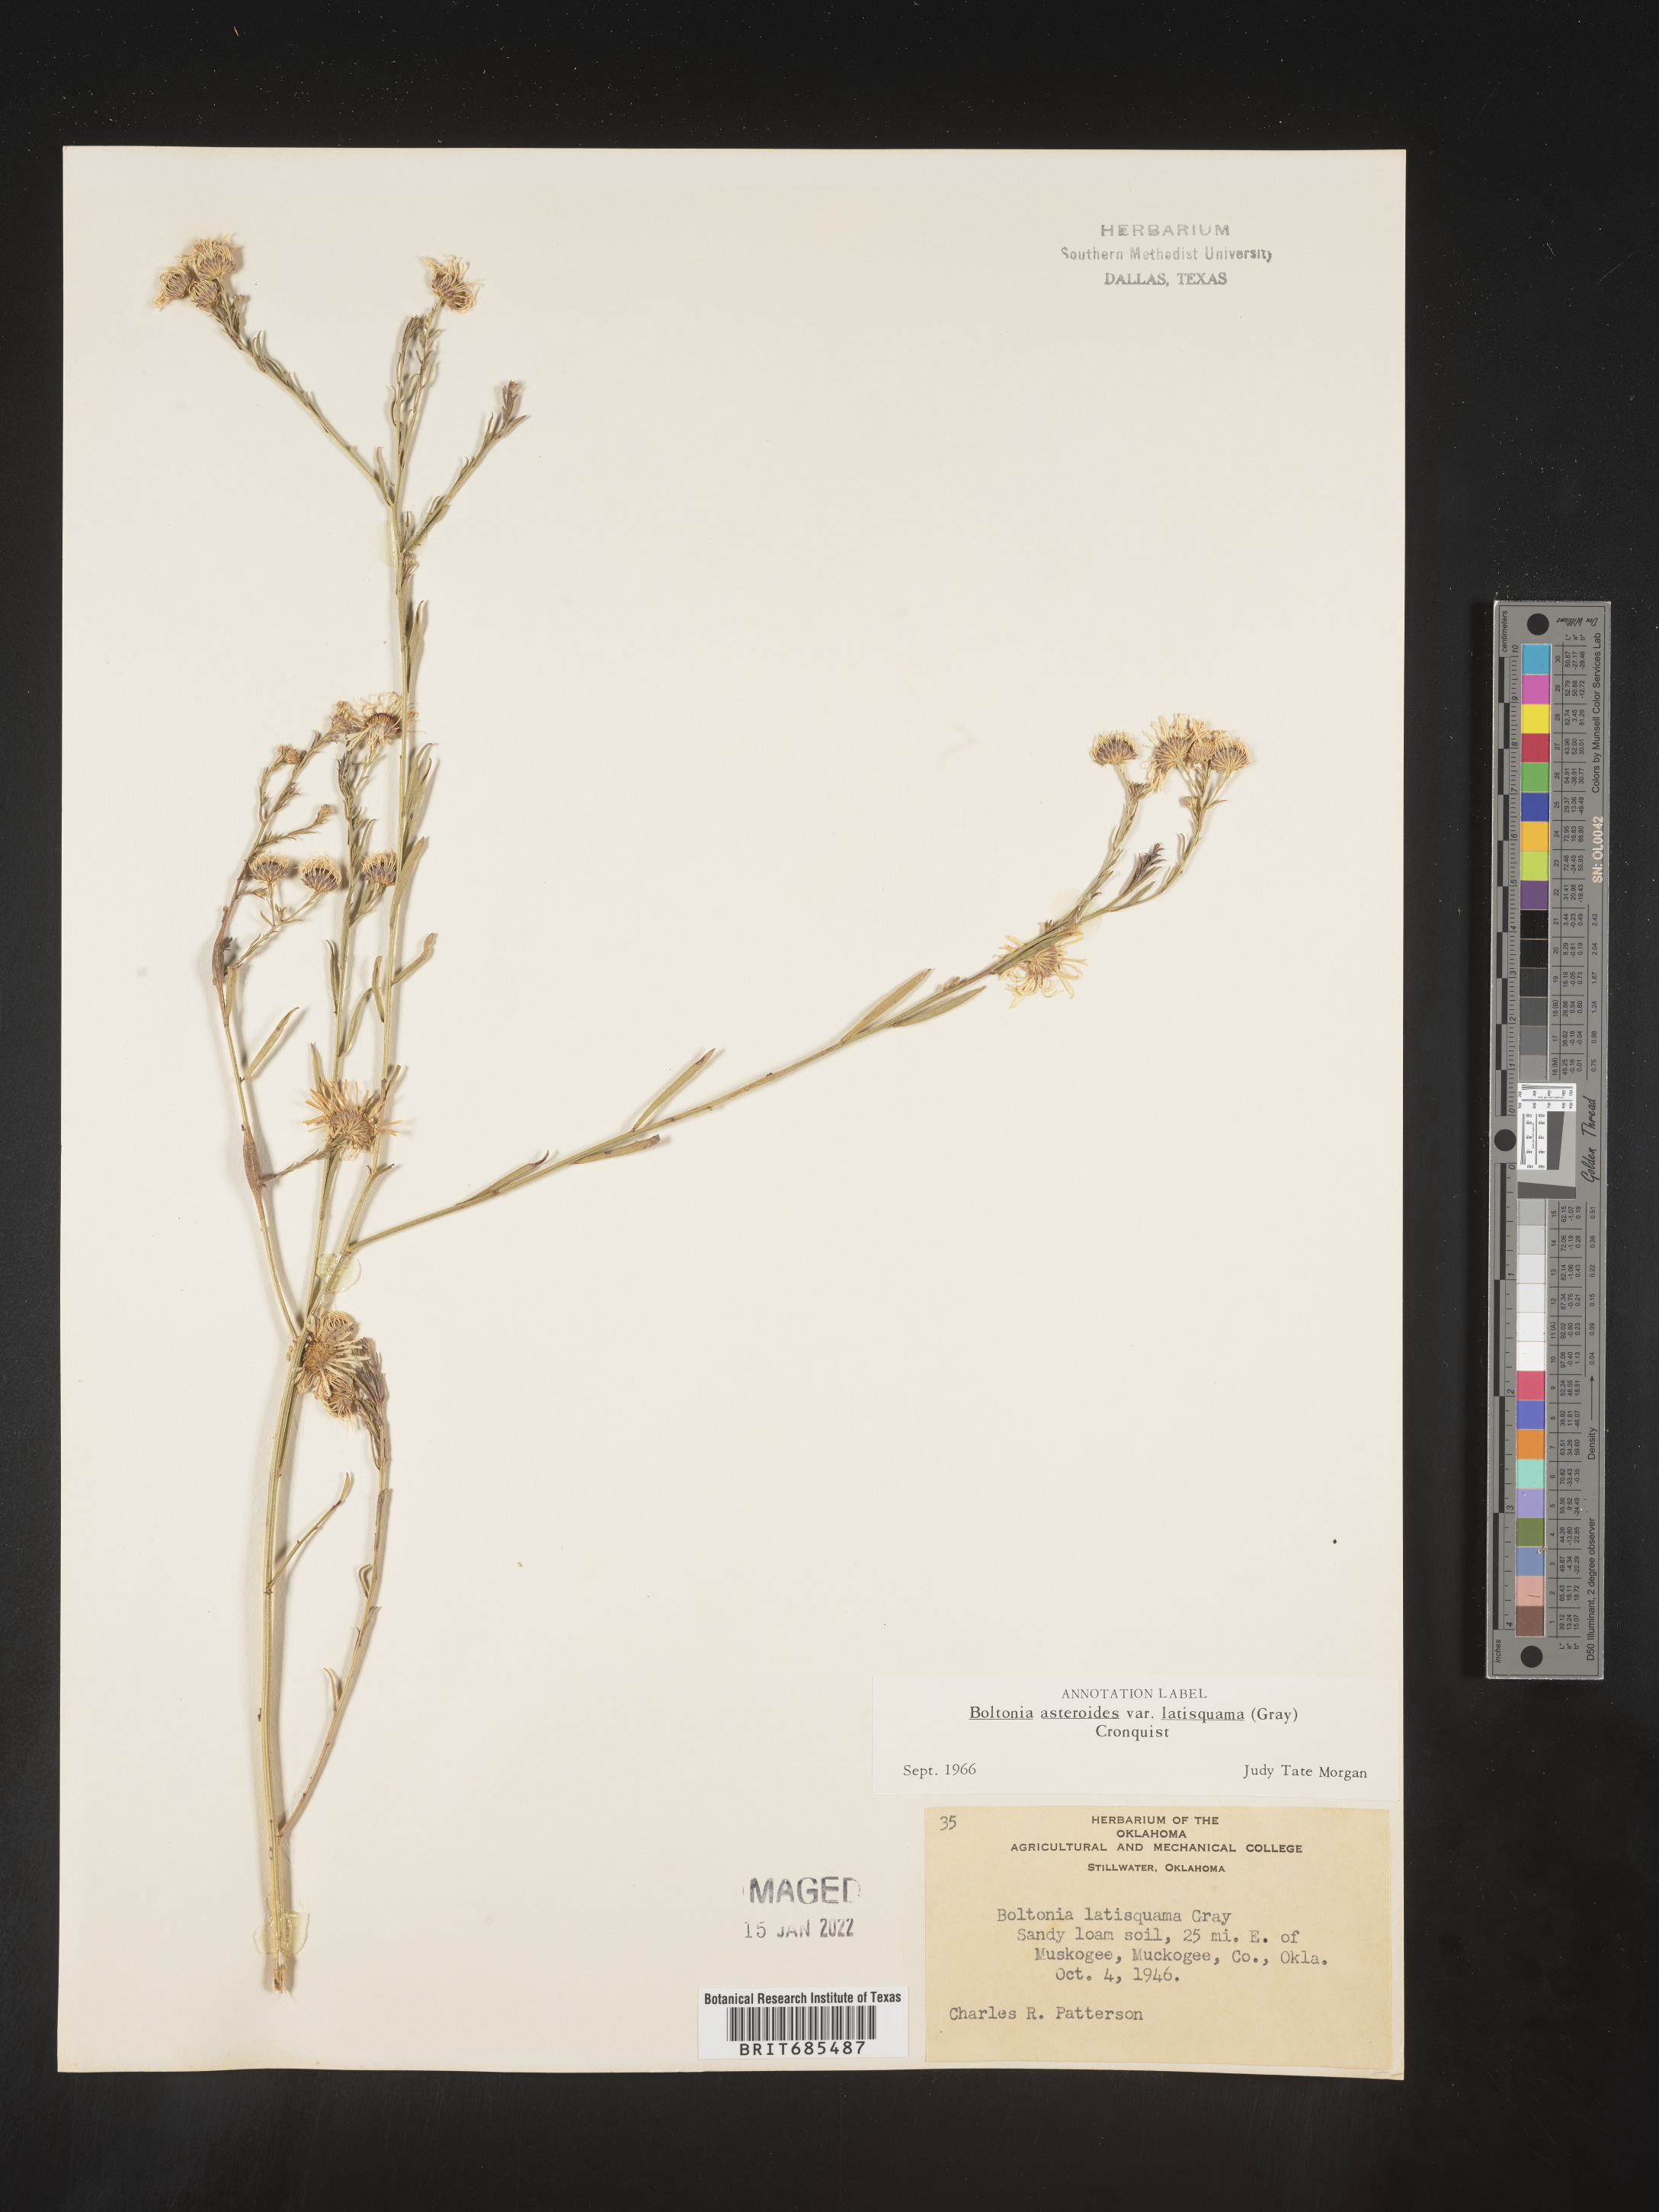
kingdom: Plantae
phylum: Tracheophyta
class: Magnoliopsida
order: Asterales
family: Asteraceae
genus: Boltonia
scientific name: Boltonia asteroides
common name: False chamomile
